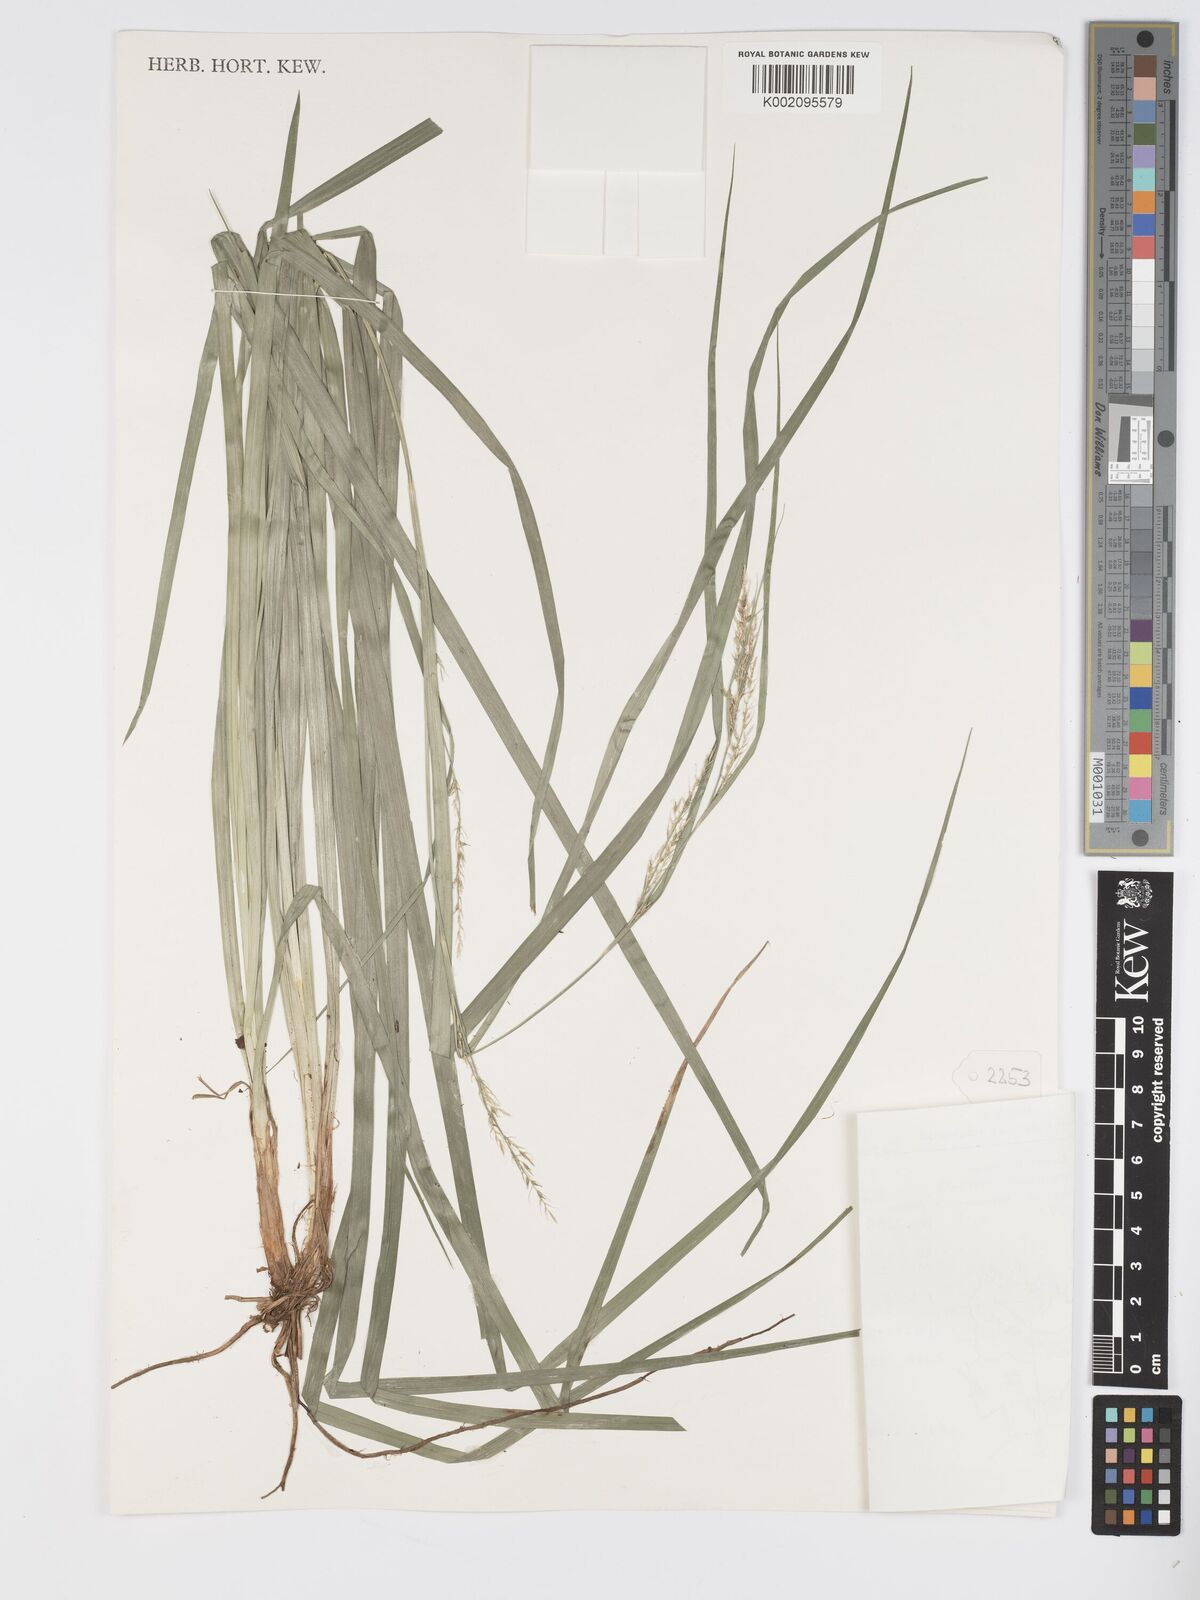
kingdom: Plantae
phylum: Tracheophyta
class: Liliopsida
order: Poales
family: Cyperaceae
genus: Carex
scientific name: Carex chlorosaccus
